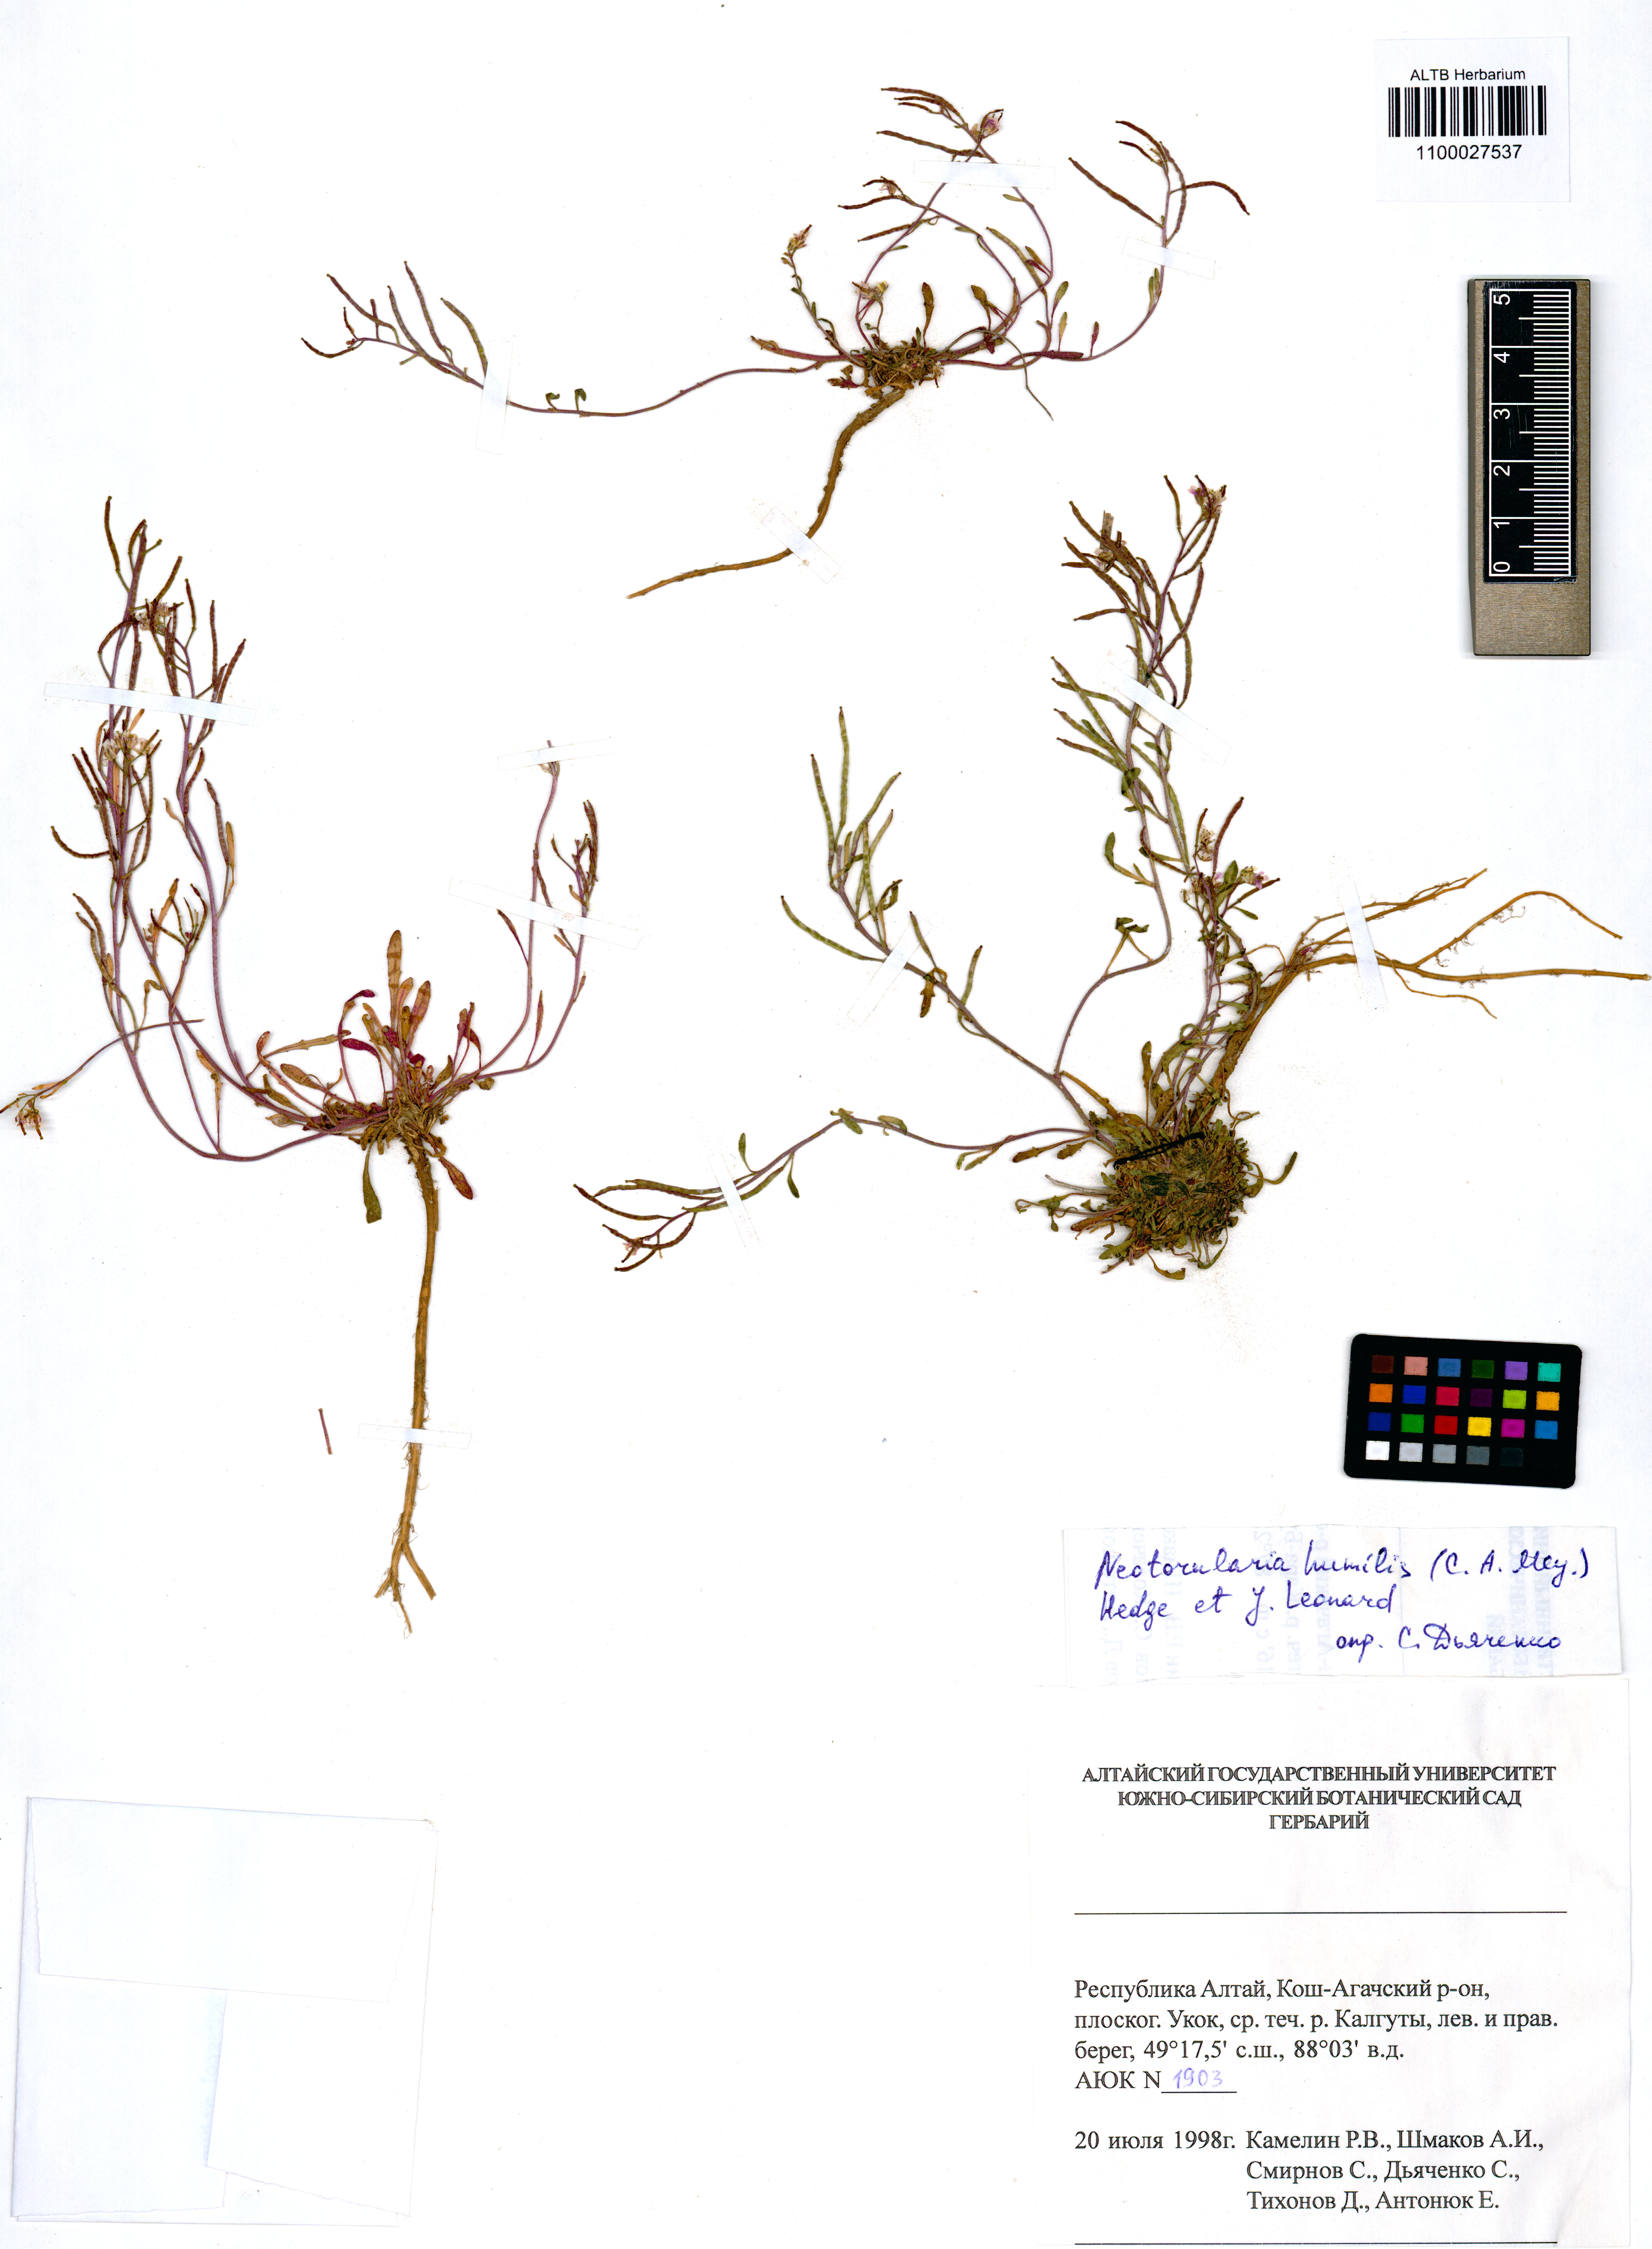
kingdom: Plantae
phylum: Tracheophyta
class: Magnoliopsida
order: Brassicales
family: Brassicaceae
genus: Braya
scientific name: Braya humilis
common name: Alpine northern rockcress
